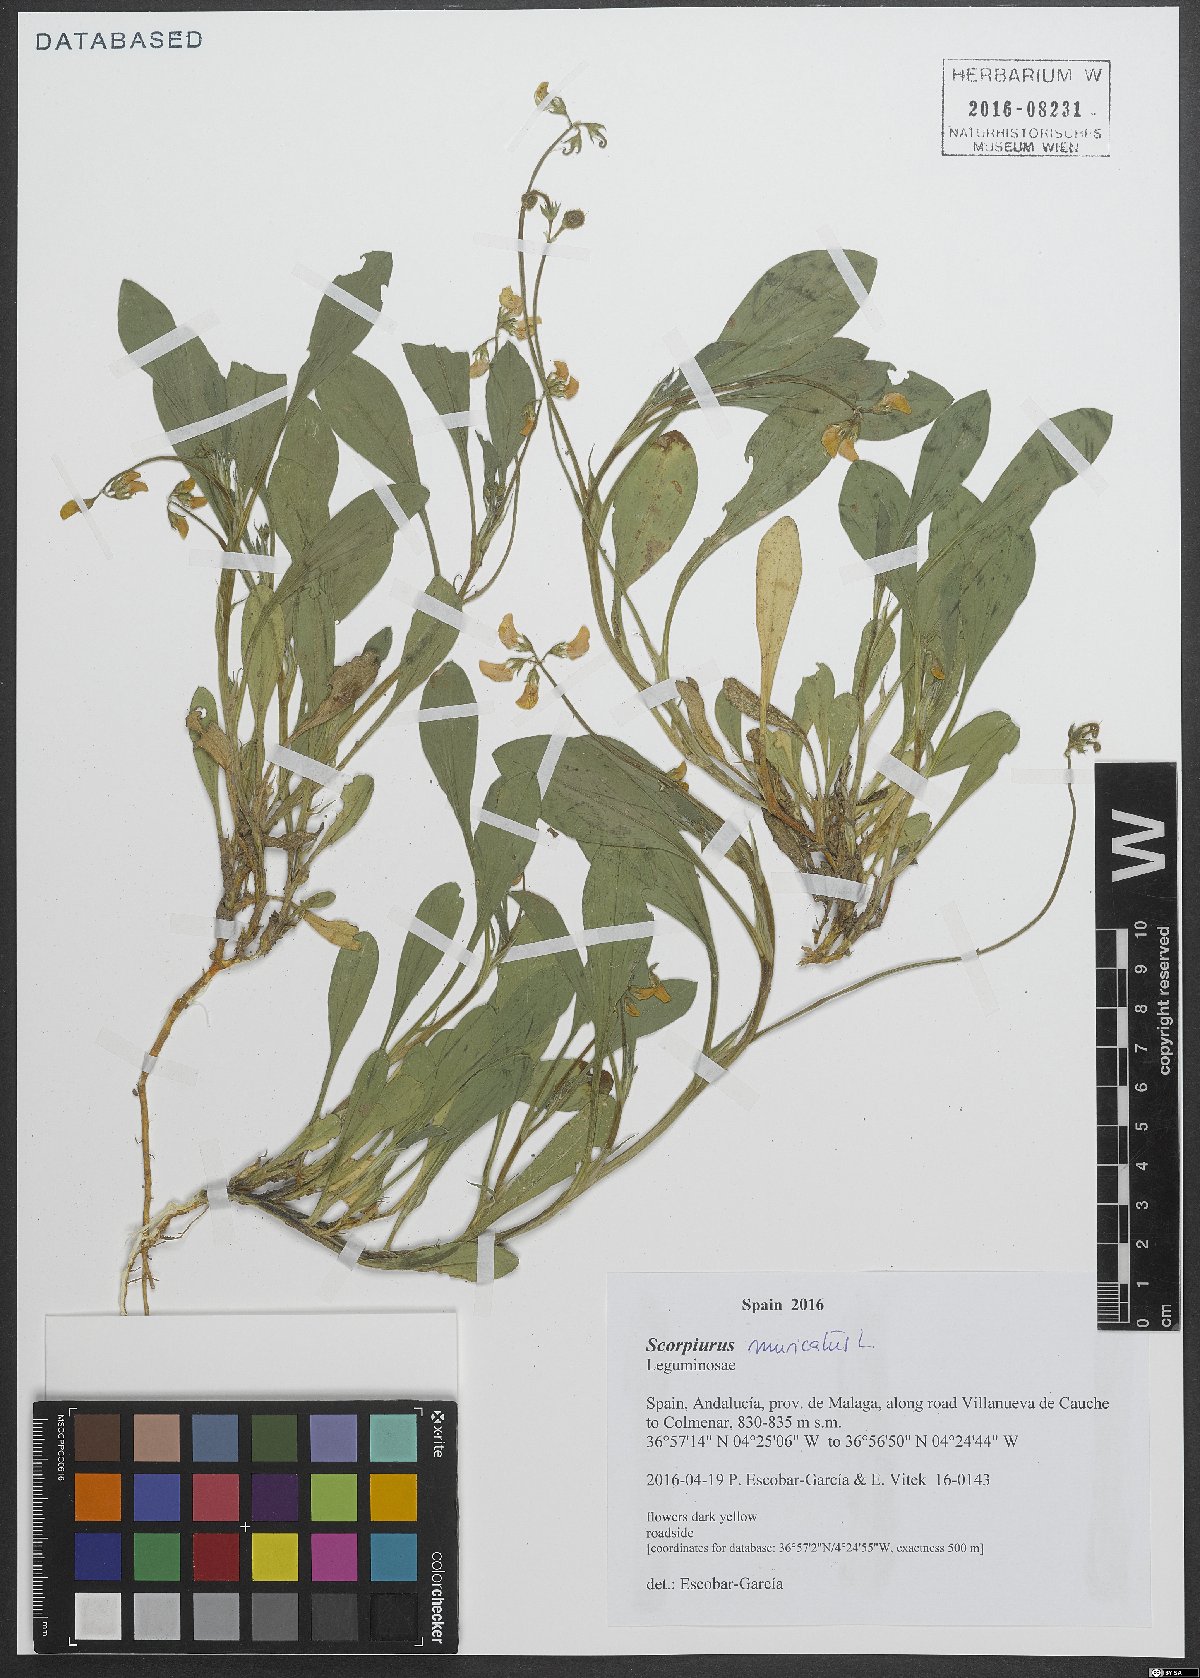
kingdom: Plantae
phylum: Tracheophyta
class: Magnoliopsida
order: Fabales
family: Fabaceae
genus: Scorpiurus
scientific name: Scorpiurus muricatus
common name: Caterpillar-plant
